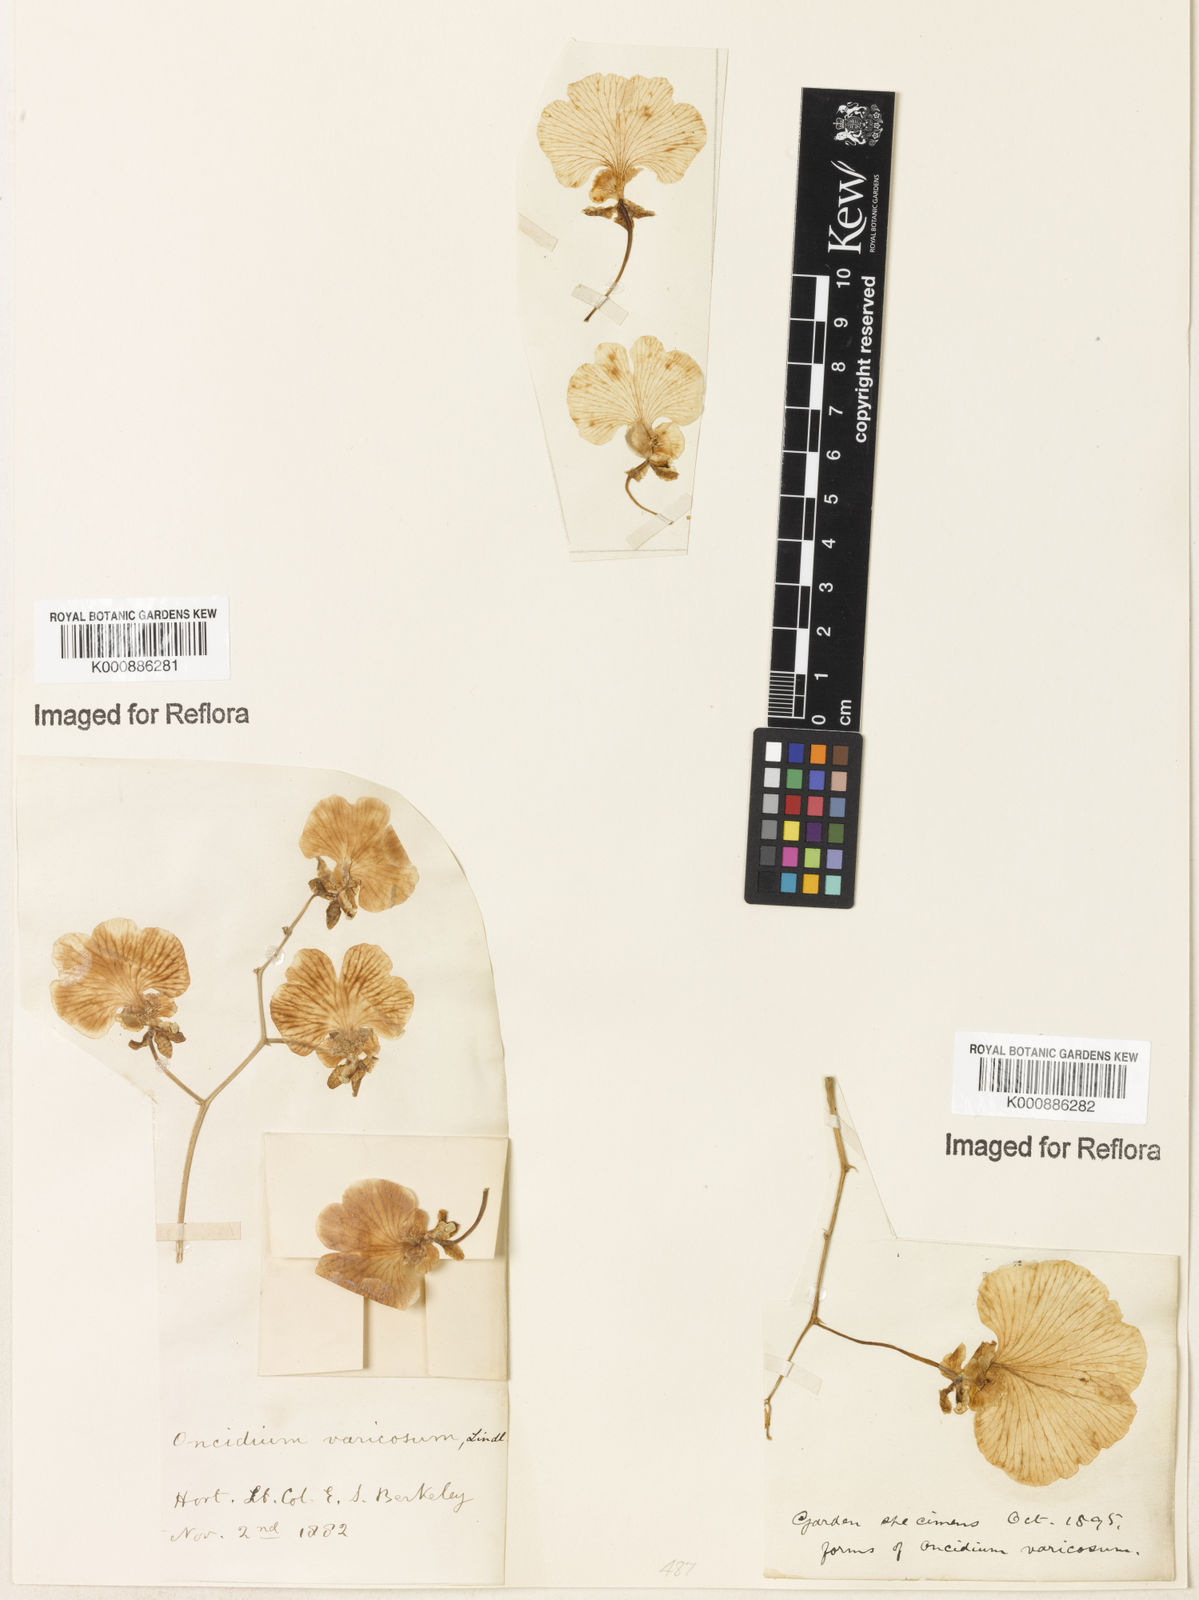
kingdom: Plantae
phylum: Tracheophyta
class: Liliopsida
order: Asparagales
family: Orchidaceae
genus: Gomesa
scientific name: Gomesa varicosa
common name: Dancing ladies
